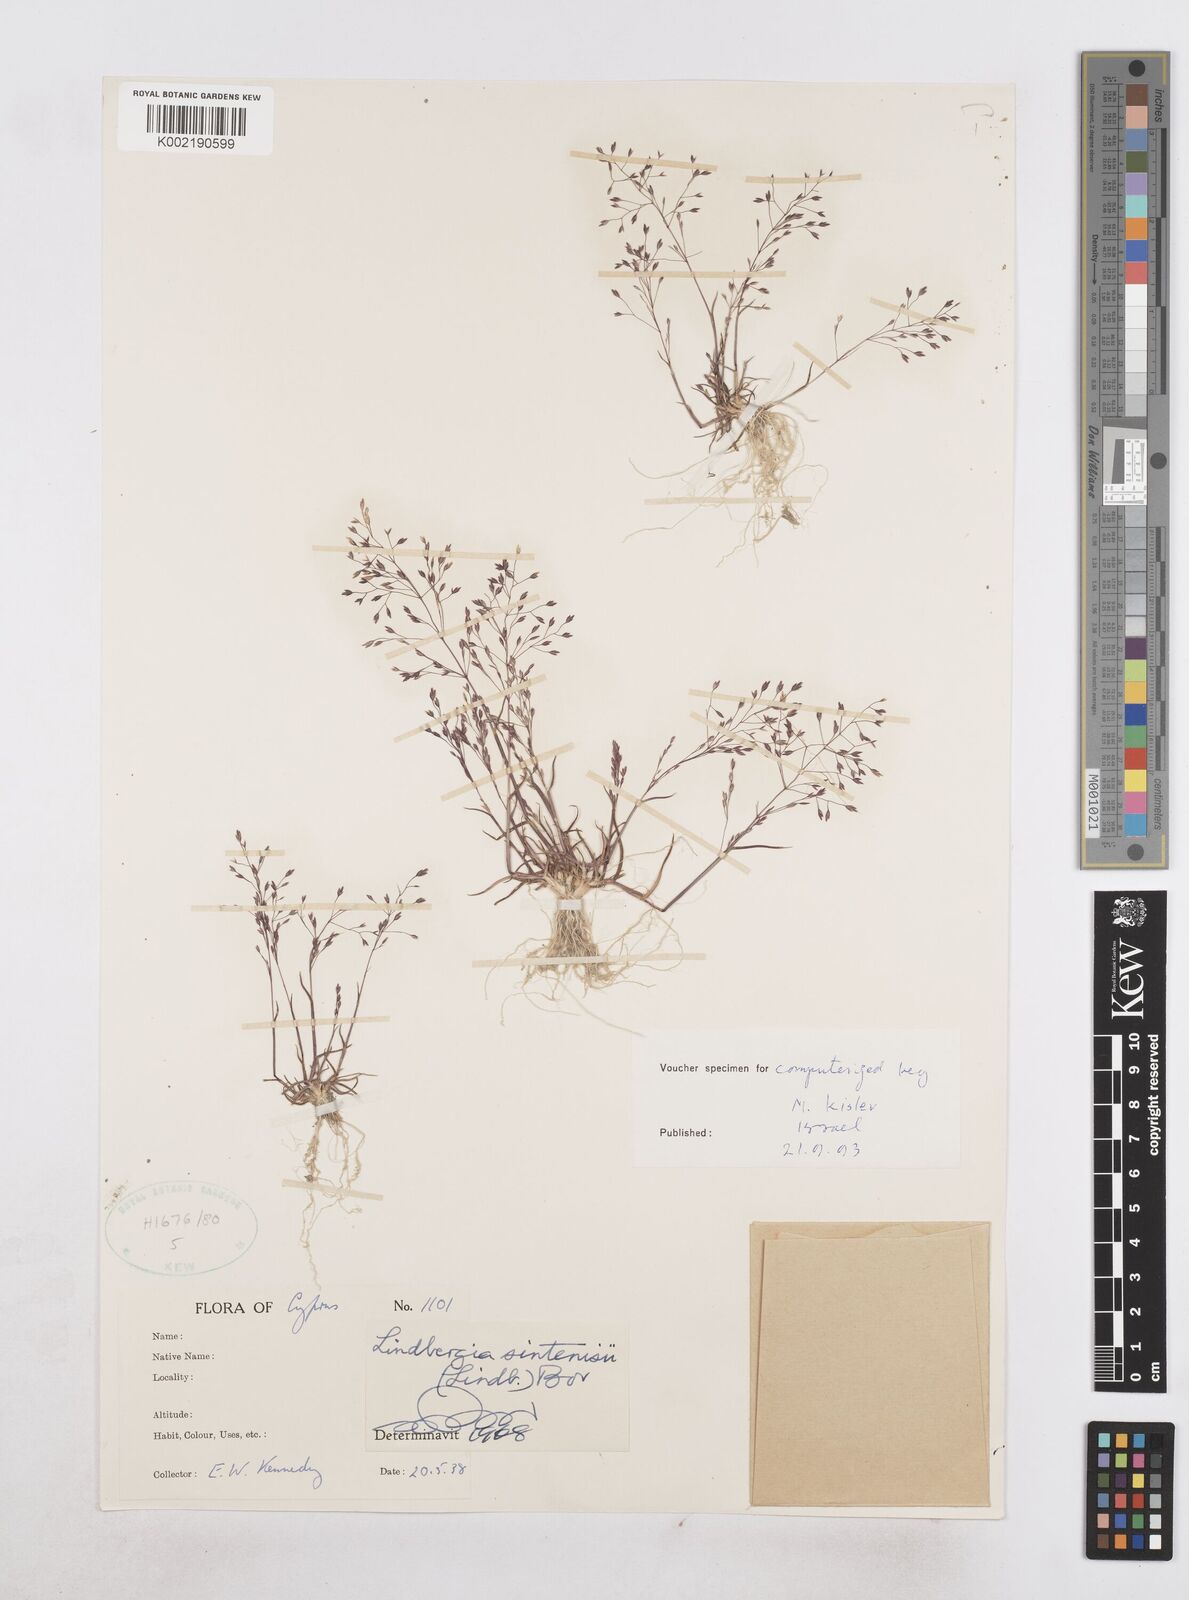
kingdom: Plantae
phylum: Tracheophyta
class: Liliopsida
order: Poales
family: Poaceae
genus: Poa
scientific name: Poa sintenisii
